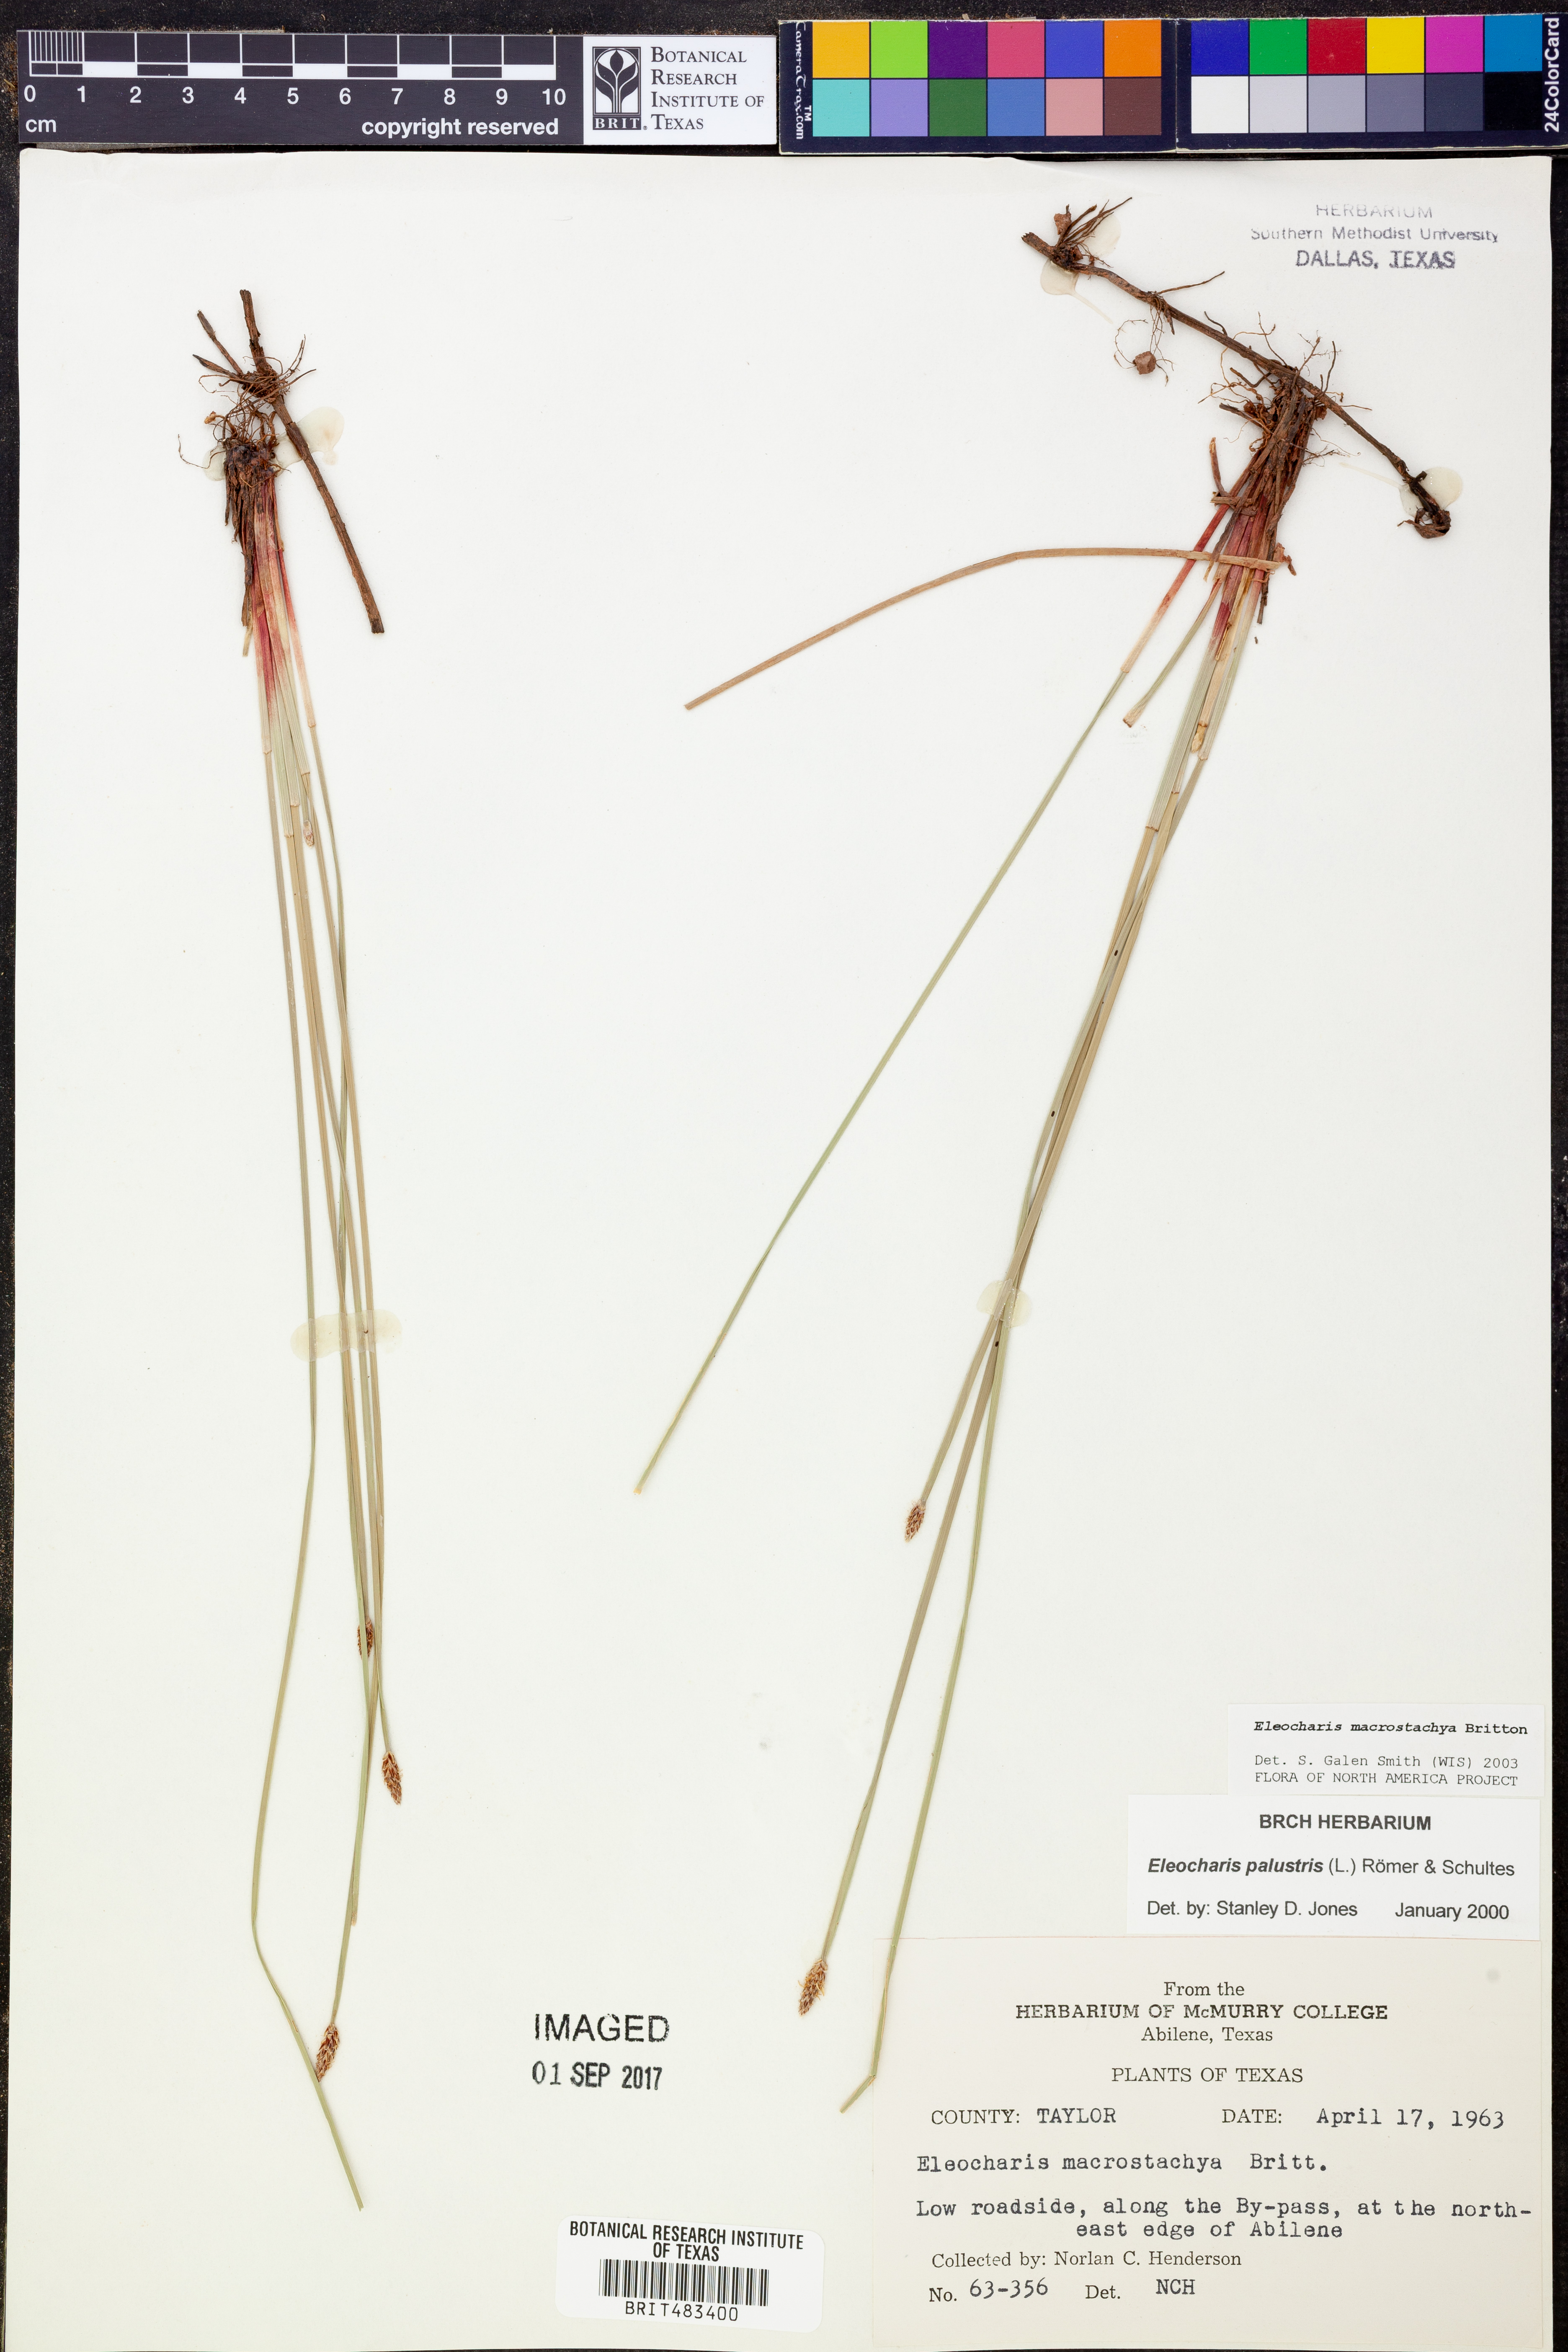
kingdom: Plantae
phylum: Tracheophyta
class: Liliopsida
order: Poales
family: Cyperaceae
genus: Eleocharis
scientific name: Eleocharis macrostachya
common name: Pale spikerush
